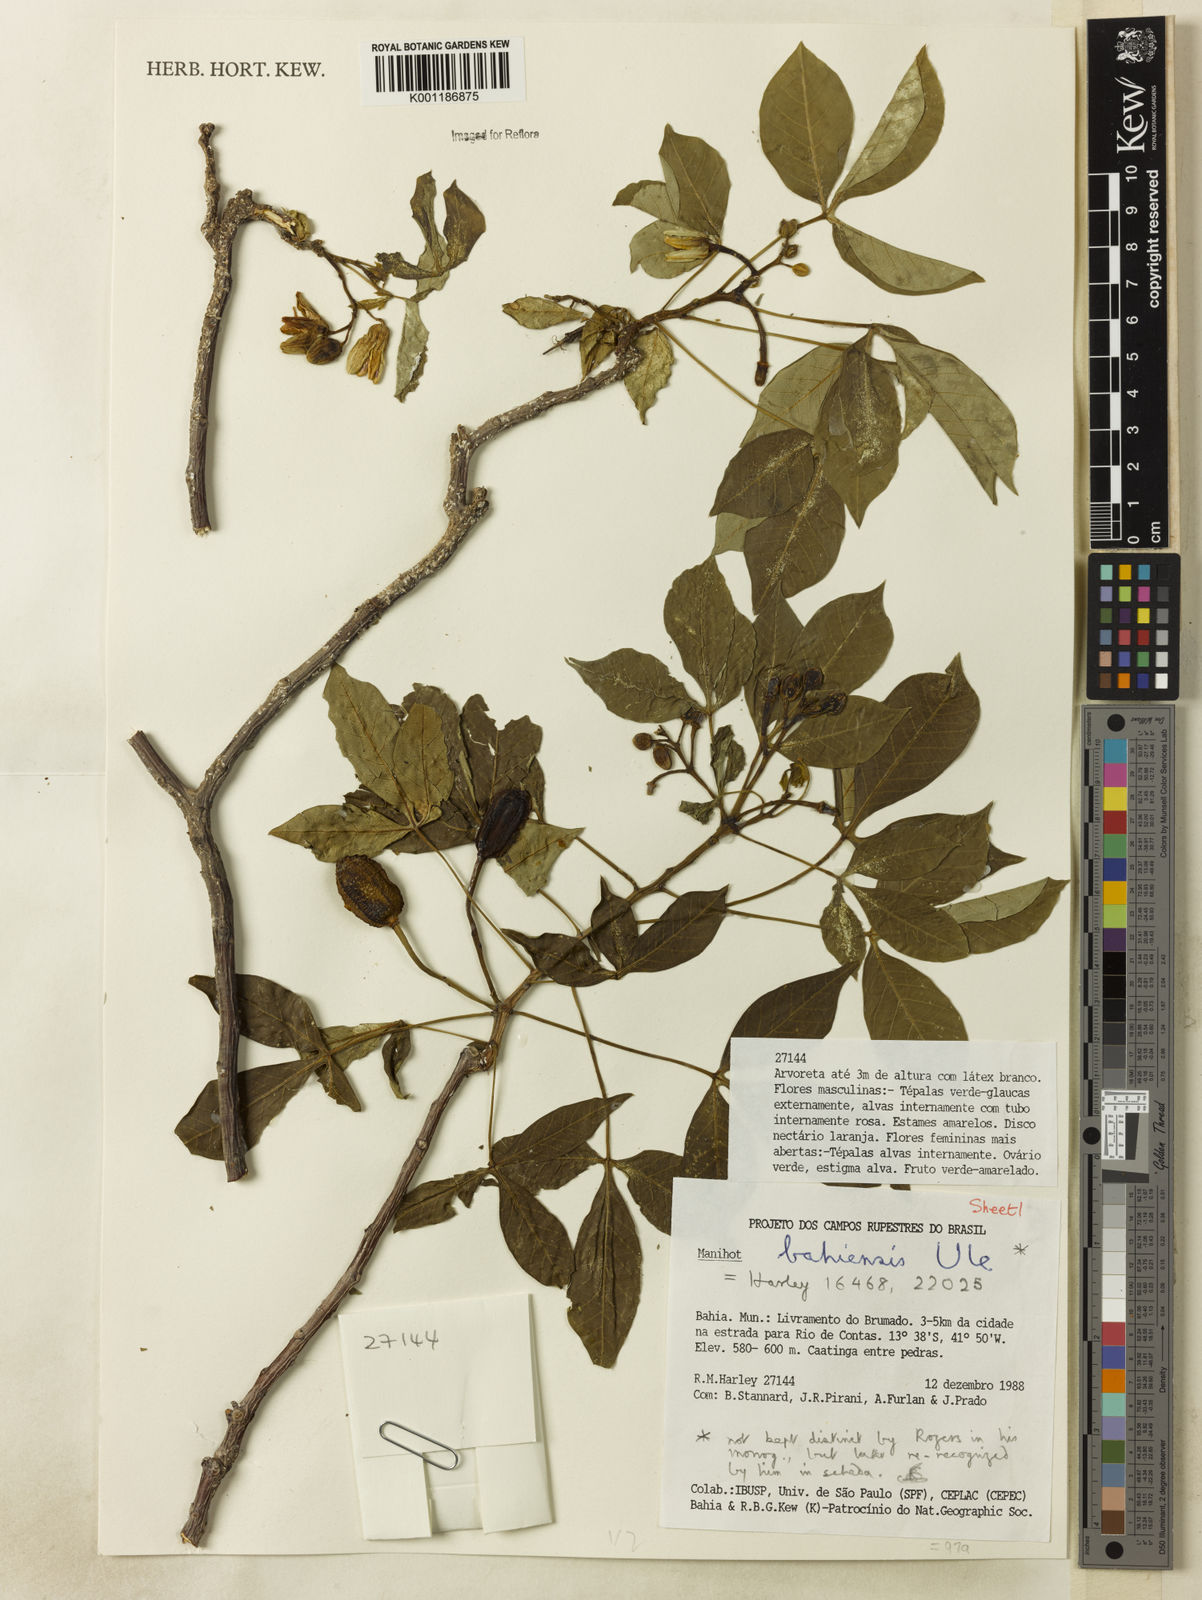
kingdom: Plantae
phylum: Tracheophyta
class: Magnoliopsida
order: Malpighiales
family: Euphorbiaceae
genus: Manihot
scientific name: Manihot caerulescens
